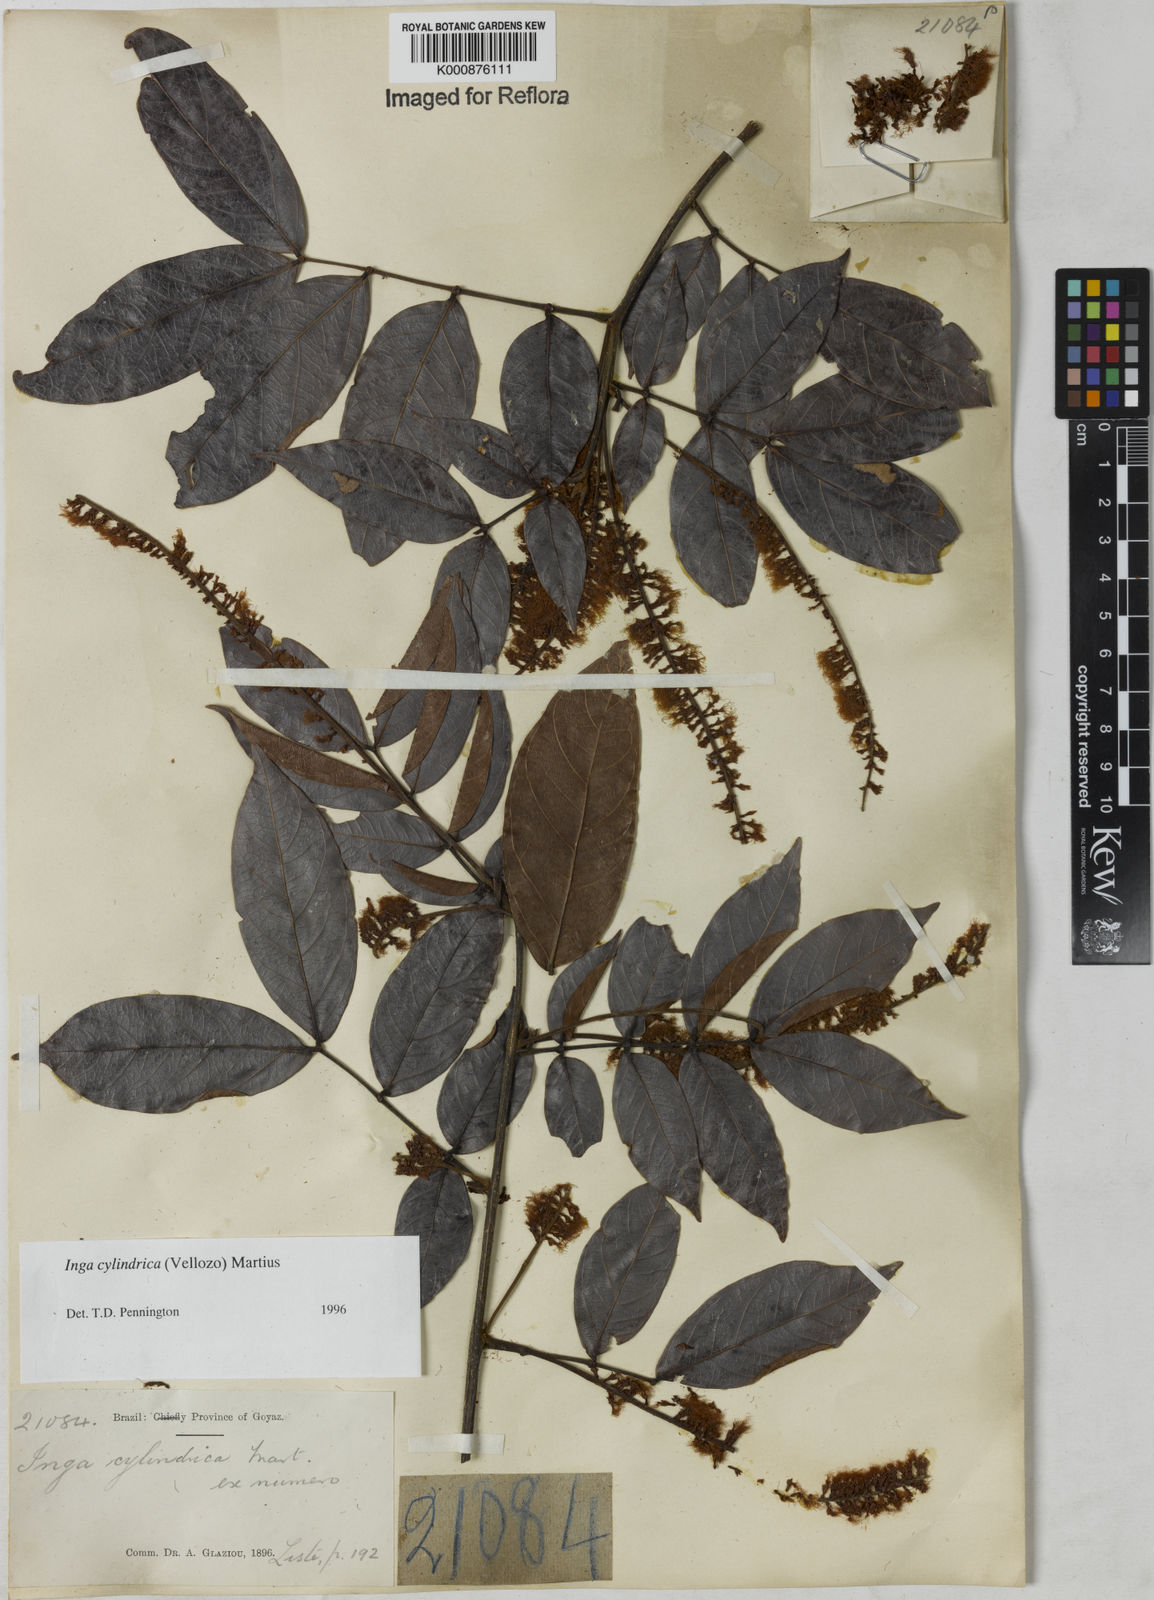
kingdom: Plantae
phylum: Tracheophyta
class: Magnoliopsida
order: Fabales
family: Fabaceae
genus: Inga
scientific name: Inga cylindrica
